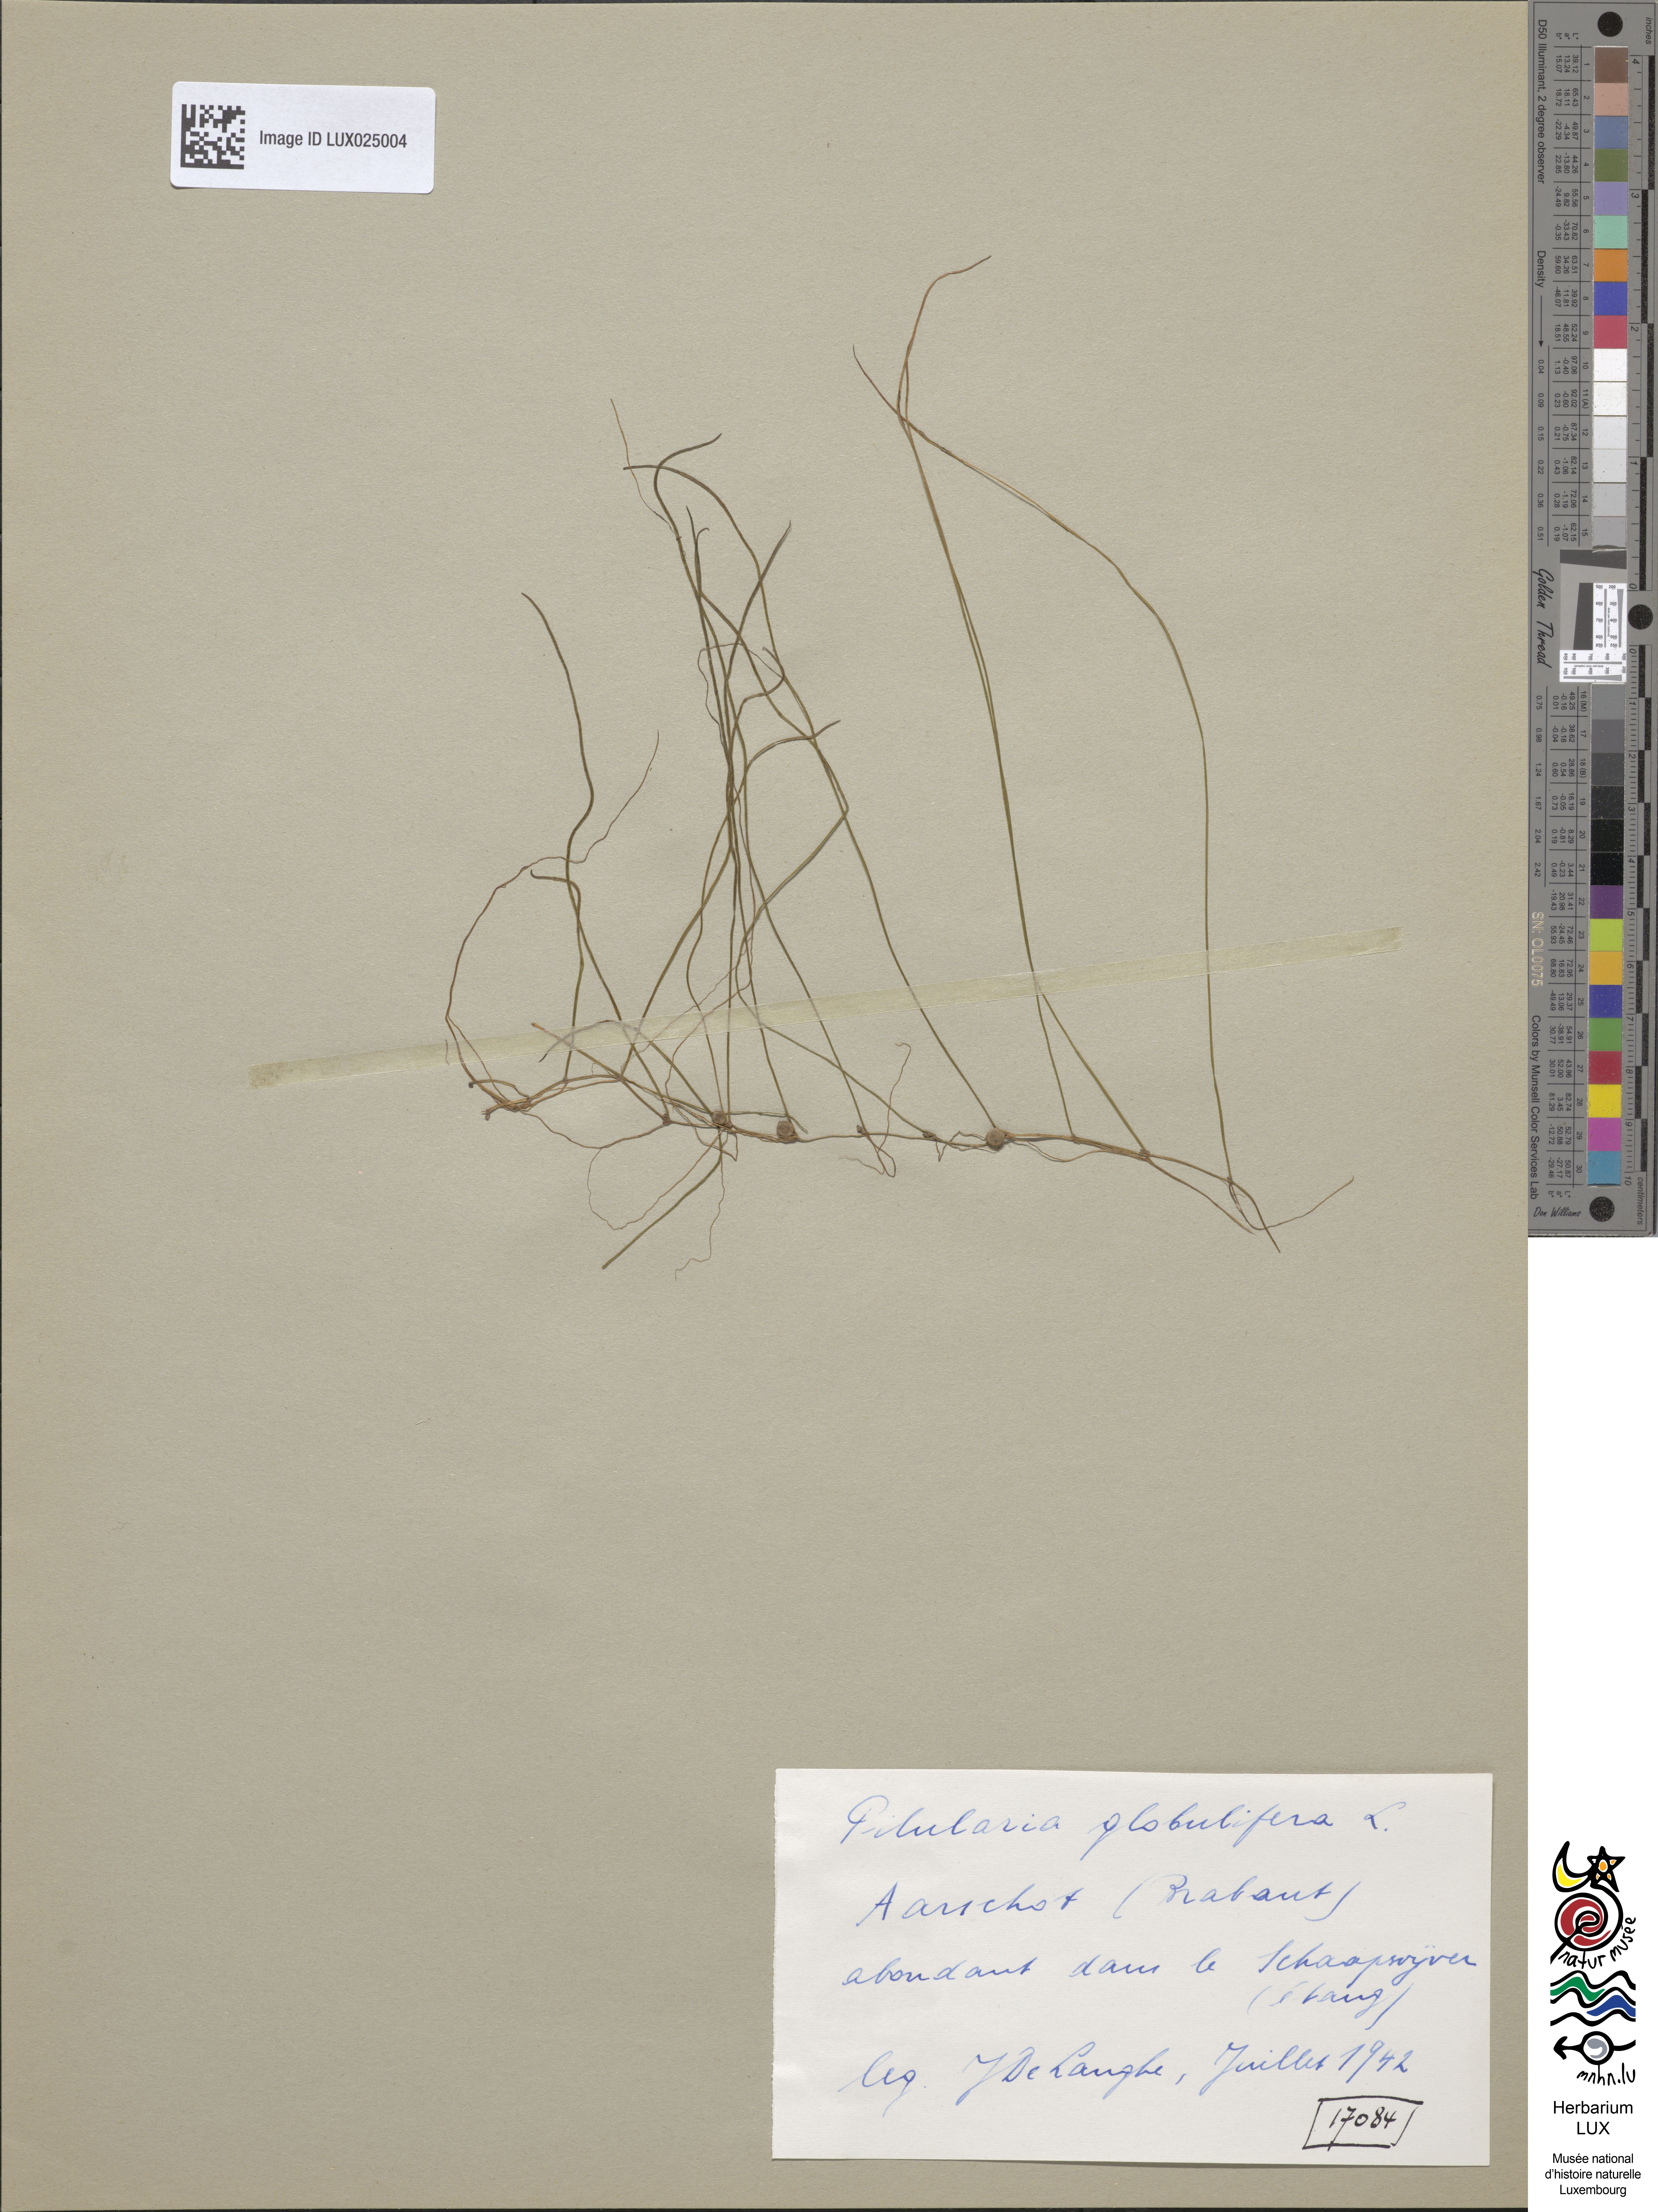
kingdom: Plantae
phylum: Tracheophyta
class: Polypodiopsida
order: Salviniales
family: Marsileaceae
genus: Pilularia
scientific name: Pilularia globulifera
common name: Pillwort
